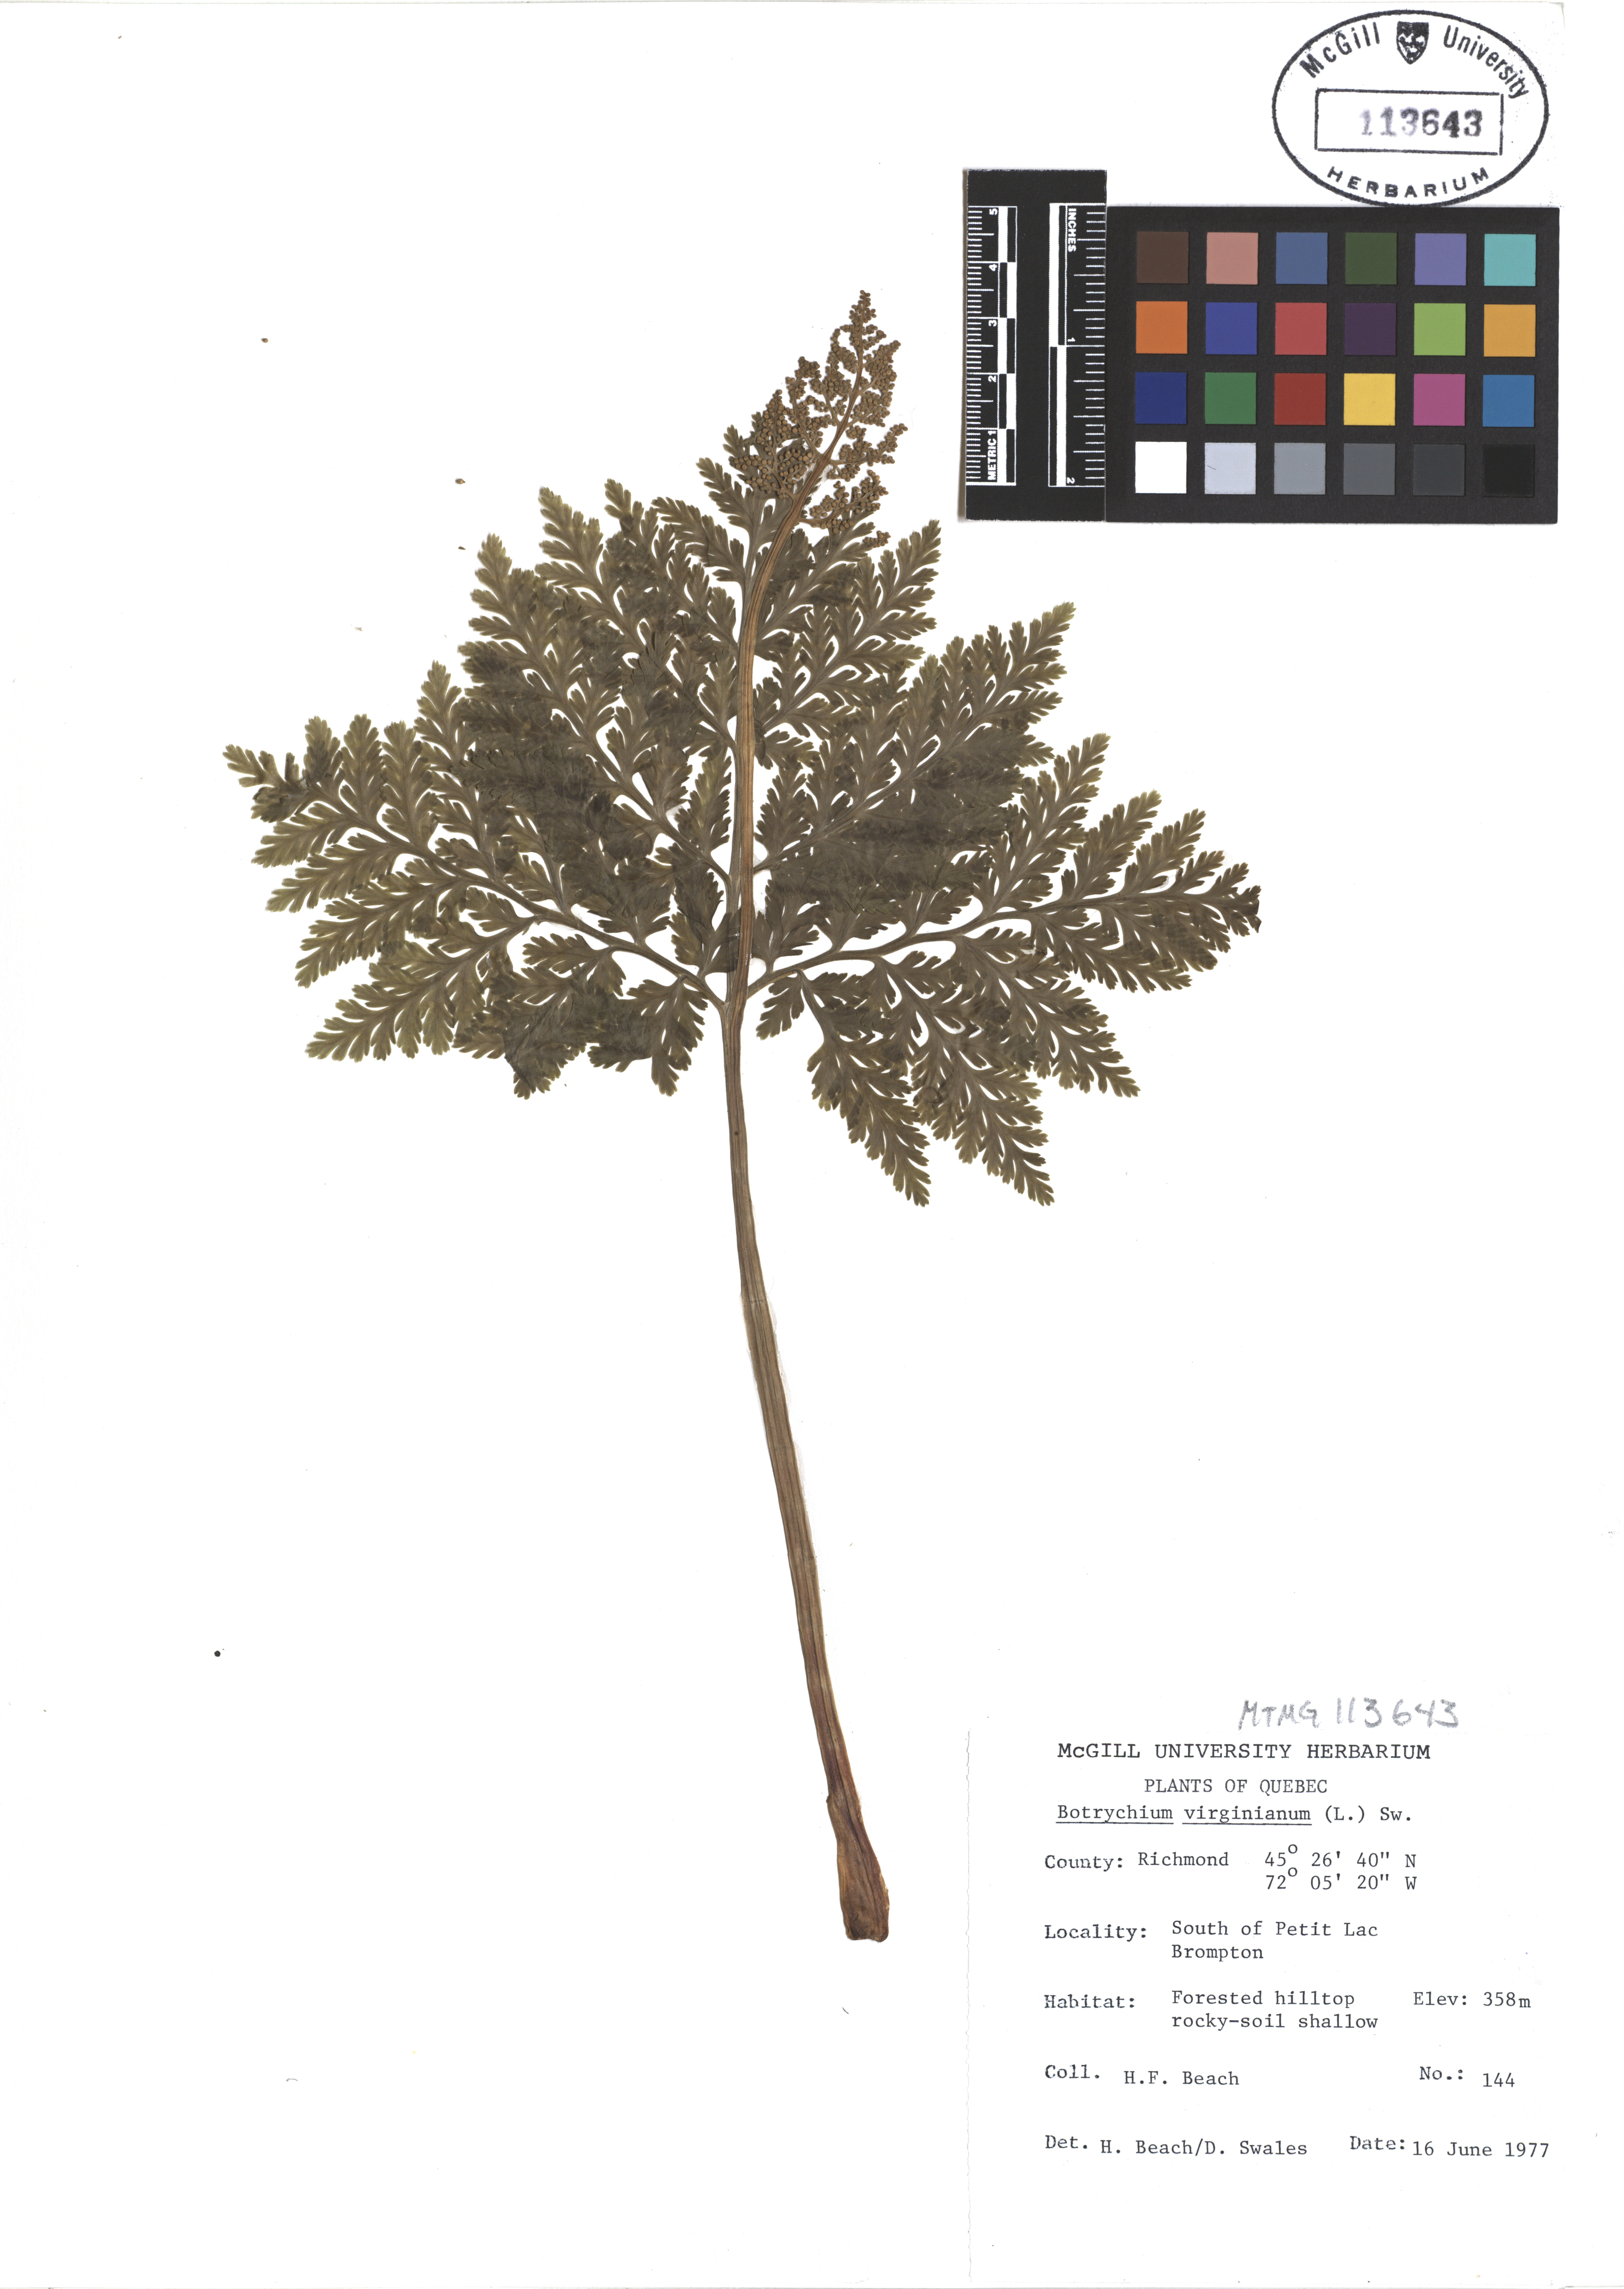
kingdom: Plantae
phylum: Tracheophyta
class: Polypodiopsida
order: Ophioglossales
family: Ophioglossaceae
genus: Botrypus
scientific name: Botrypus virginianus
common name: Common grapefern
